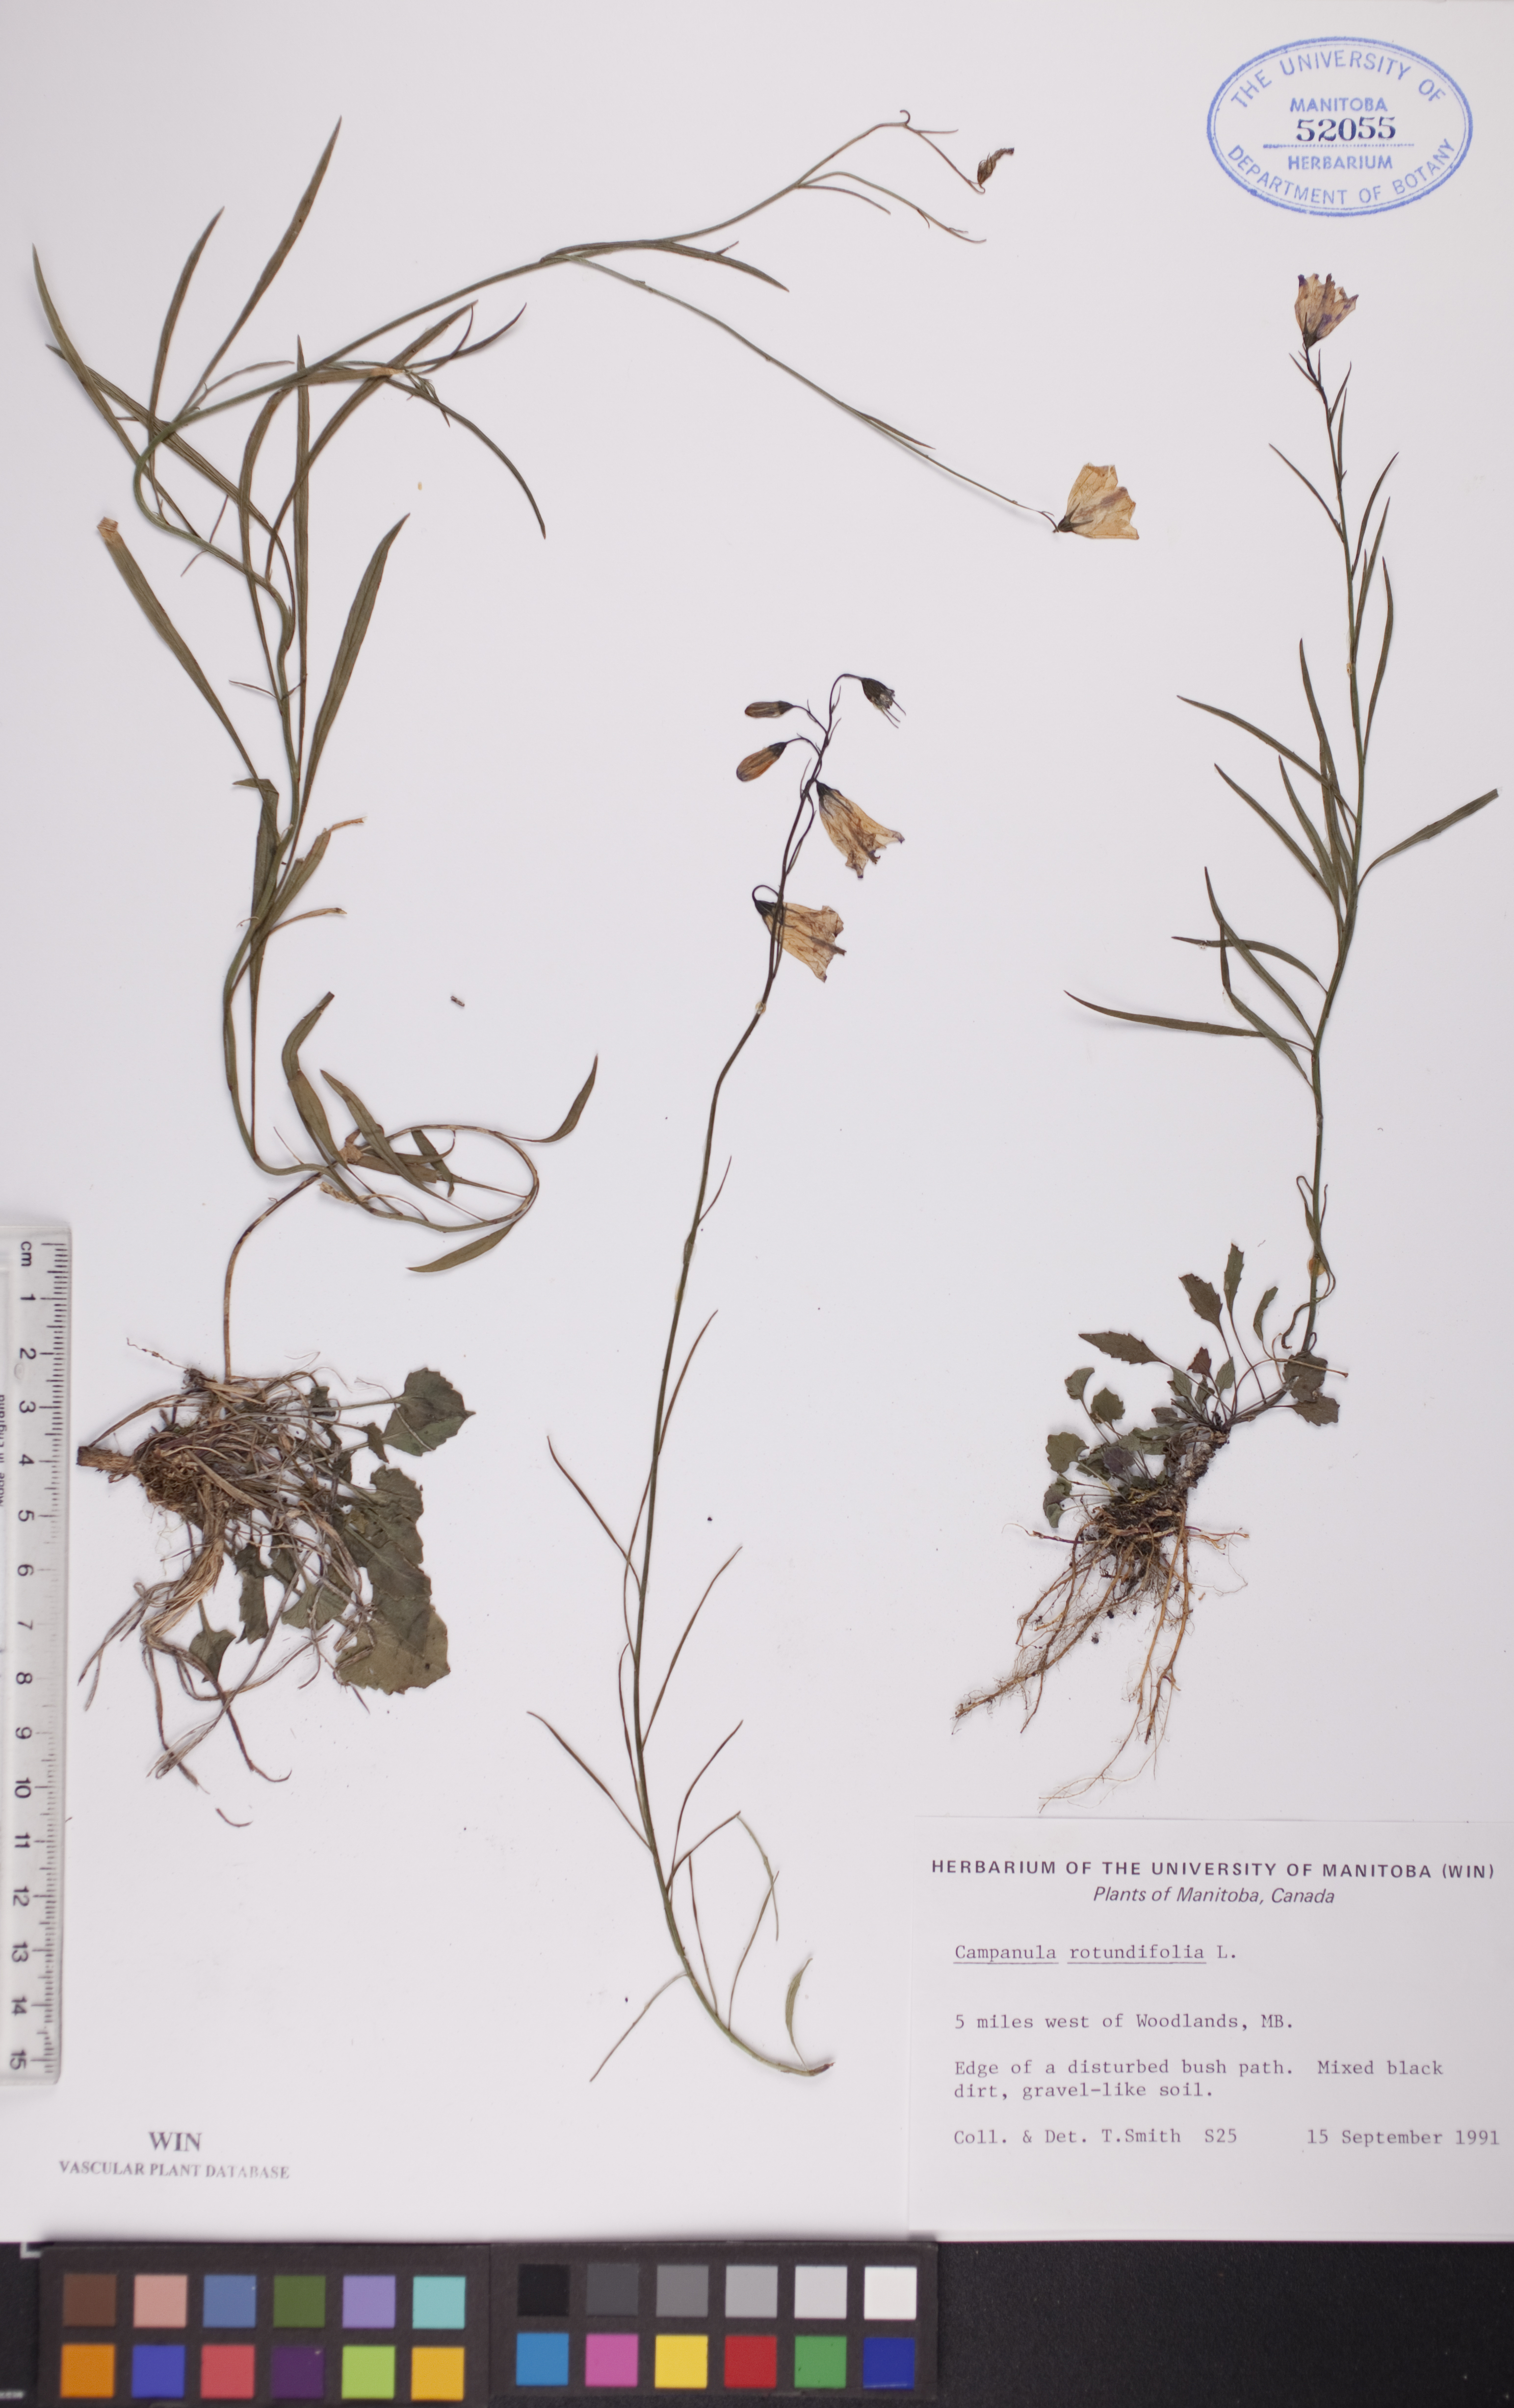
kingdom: Plantae
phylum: Tracheophyta
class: Magnoliopsida
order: Asterales
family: Campanulaceae
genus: Campanula
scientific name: Campanula rotundifolia
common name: Harebell
